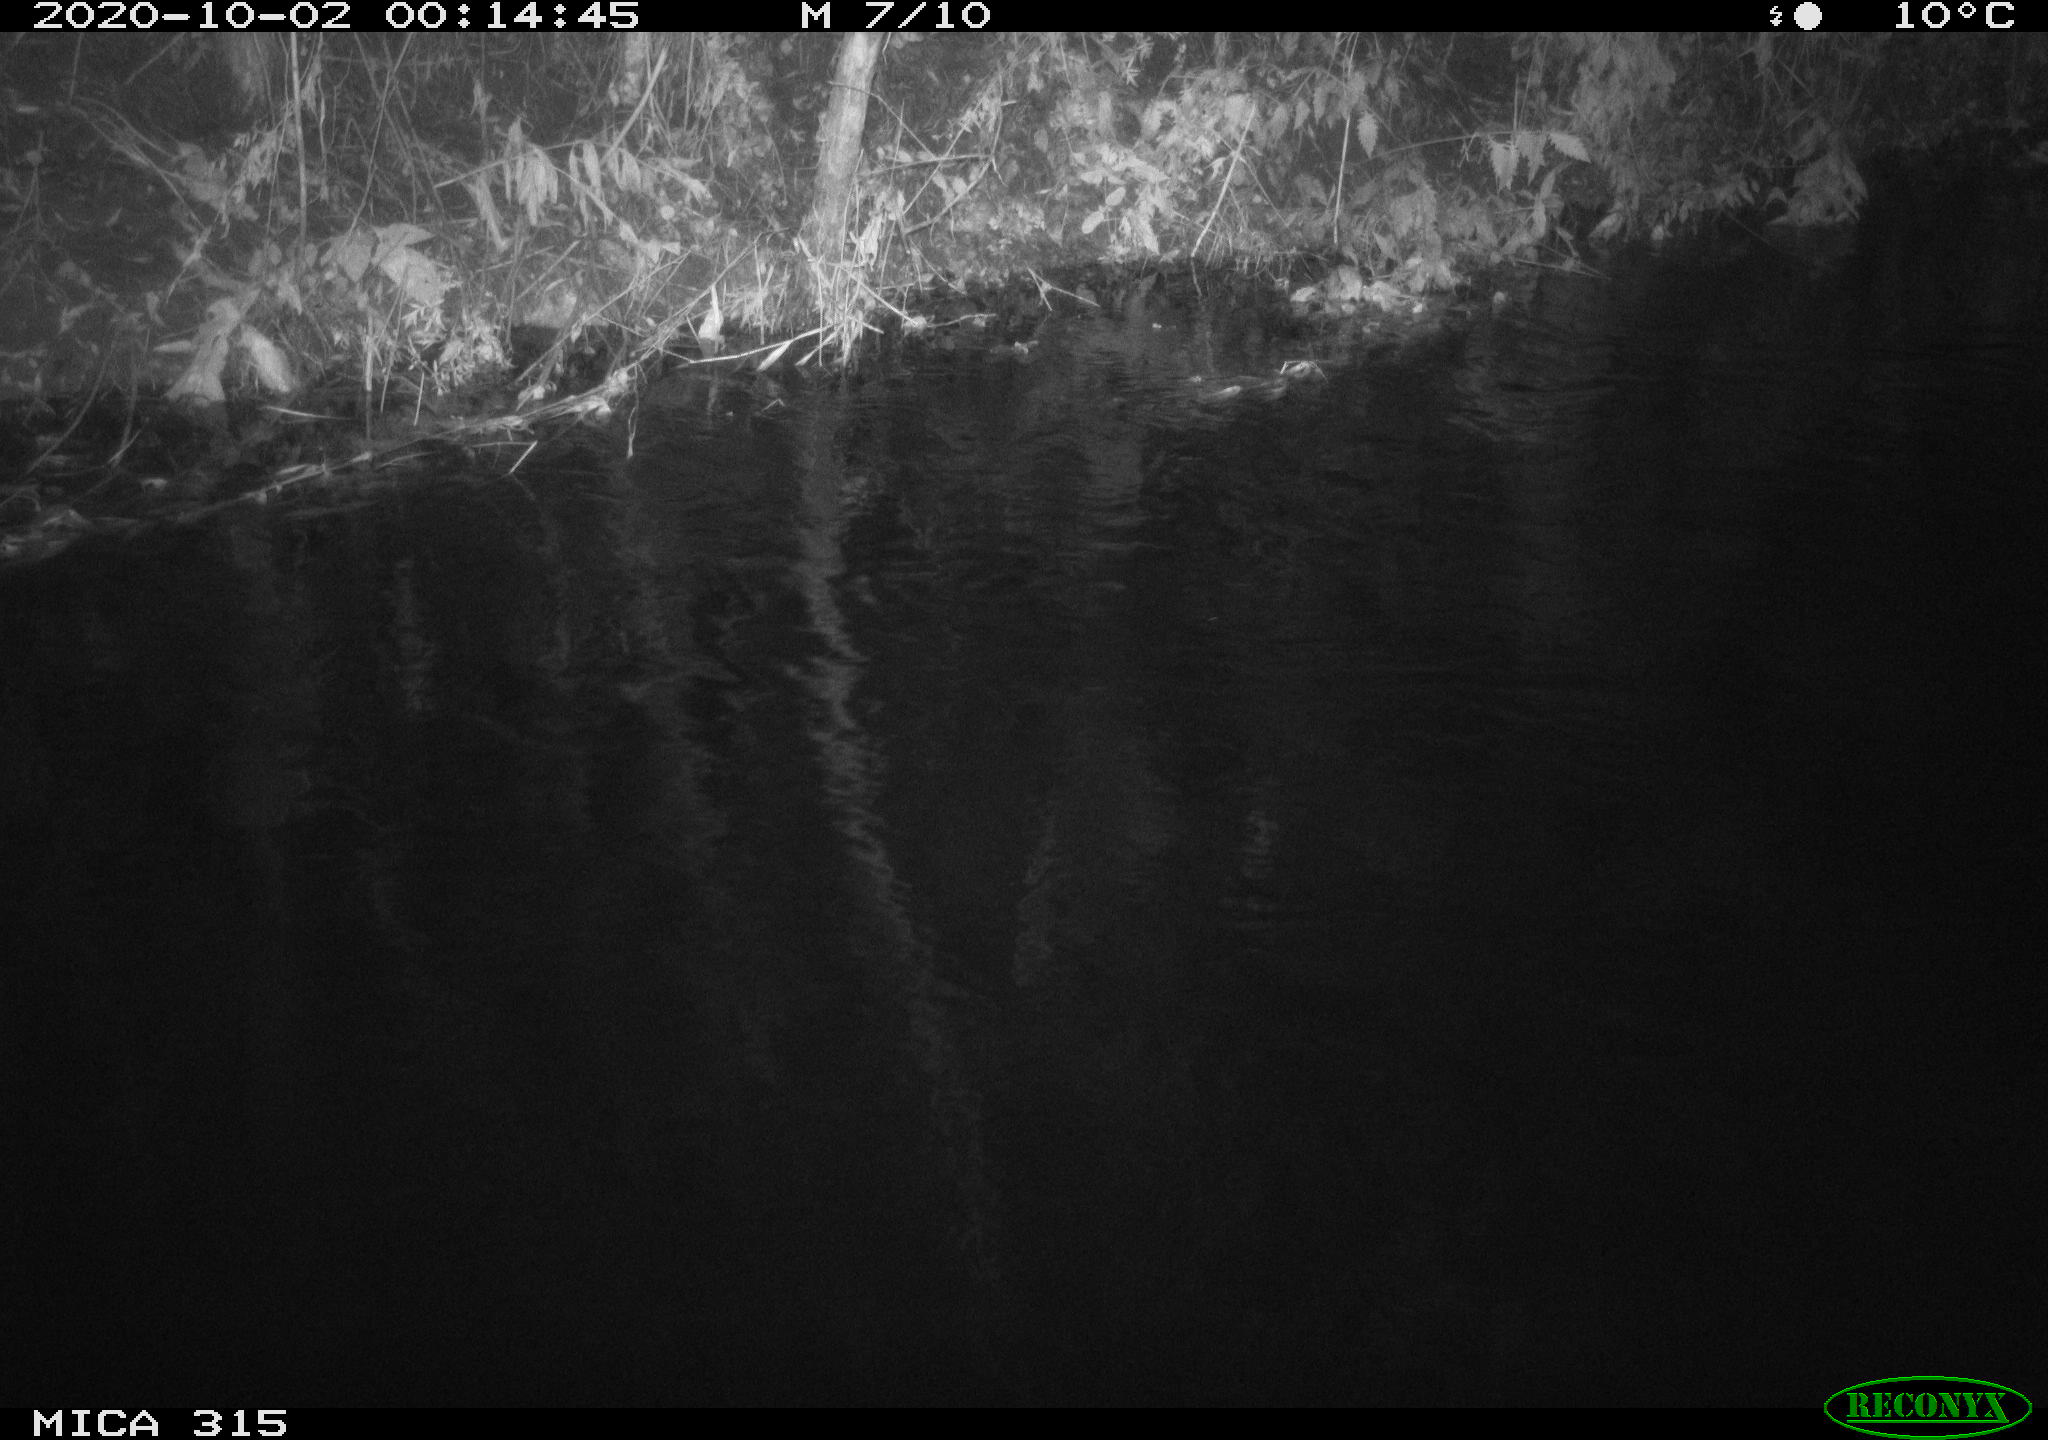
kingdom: Animalia
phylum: Chordata
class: Aves
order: Anseriformes
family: Anatidae
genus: Anas
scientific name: Anas platyrhynchos
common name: Mallard
